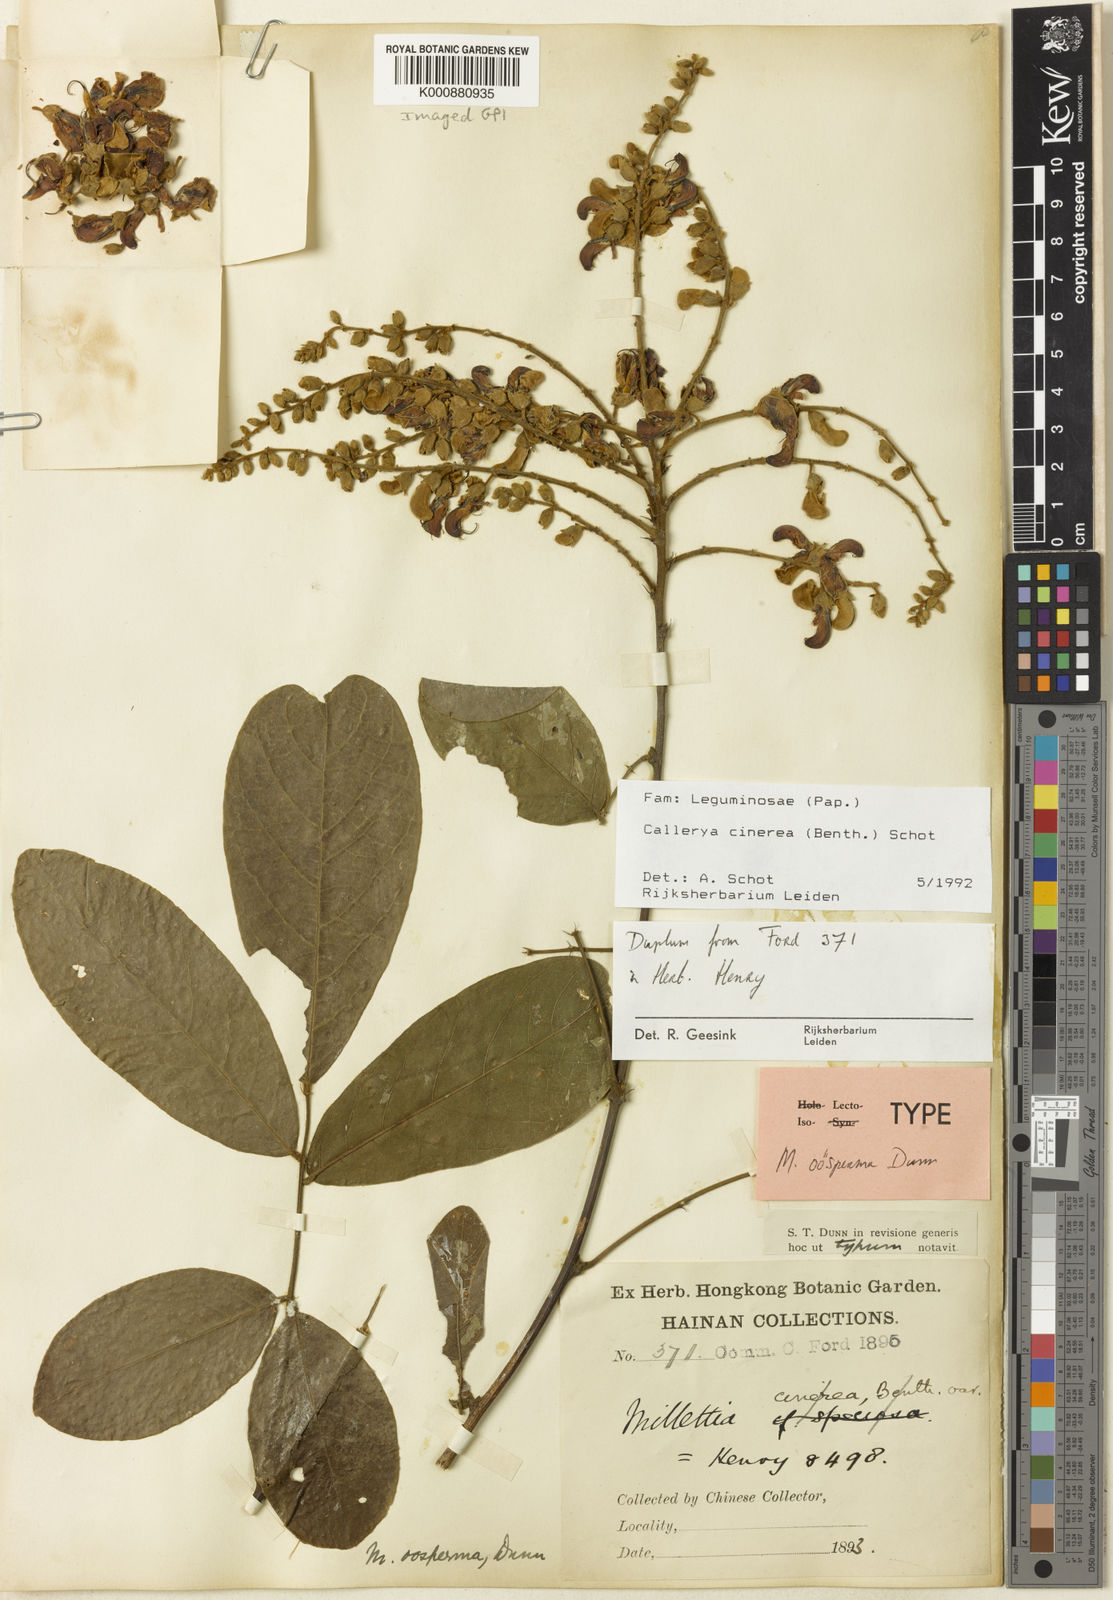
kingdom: Plantae
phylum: Tracheophyta
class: Magnoliopsida
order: Fabales
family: Fabaceae
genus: Callerya
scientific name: Callerya cinerea
